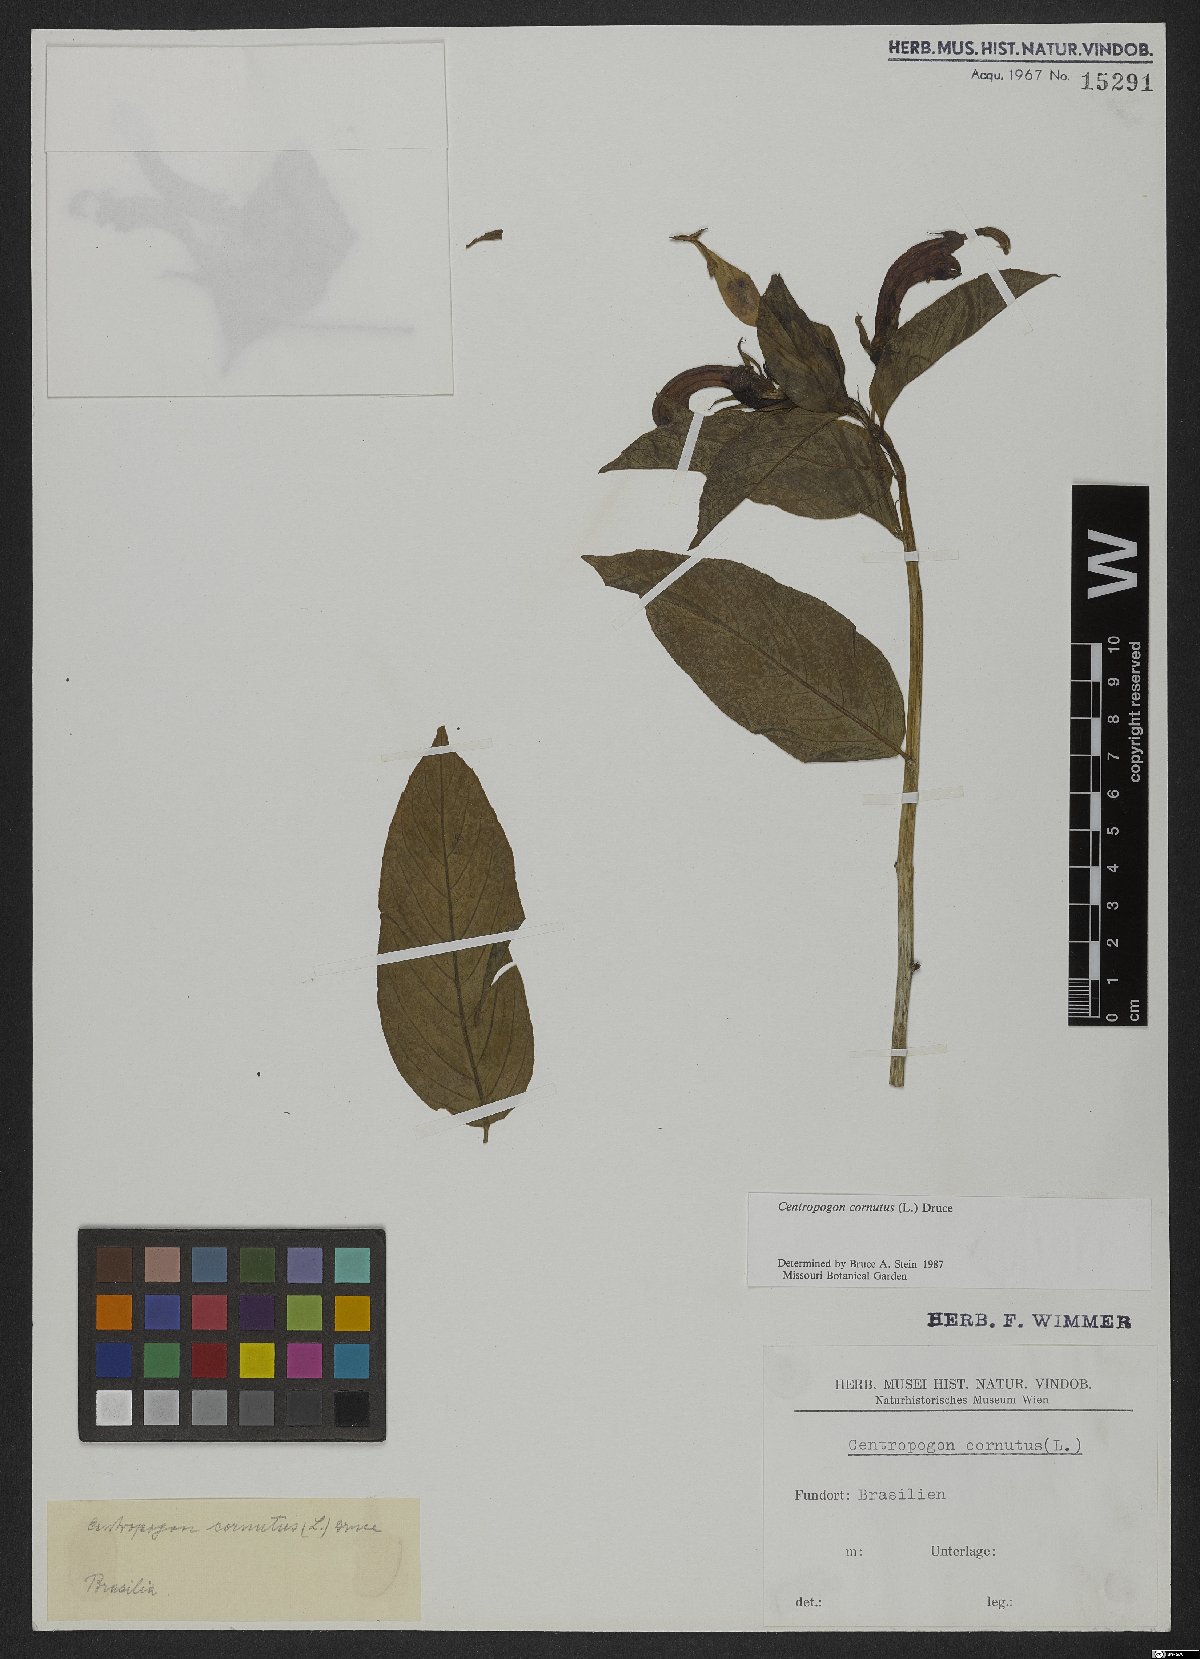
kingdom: Plantae
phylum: Tracheophyta
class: Magnoliopsida
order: Asterales
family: Campanulaceae
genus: Centropogon
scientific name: Centropogon cornutus
